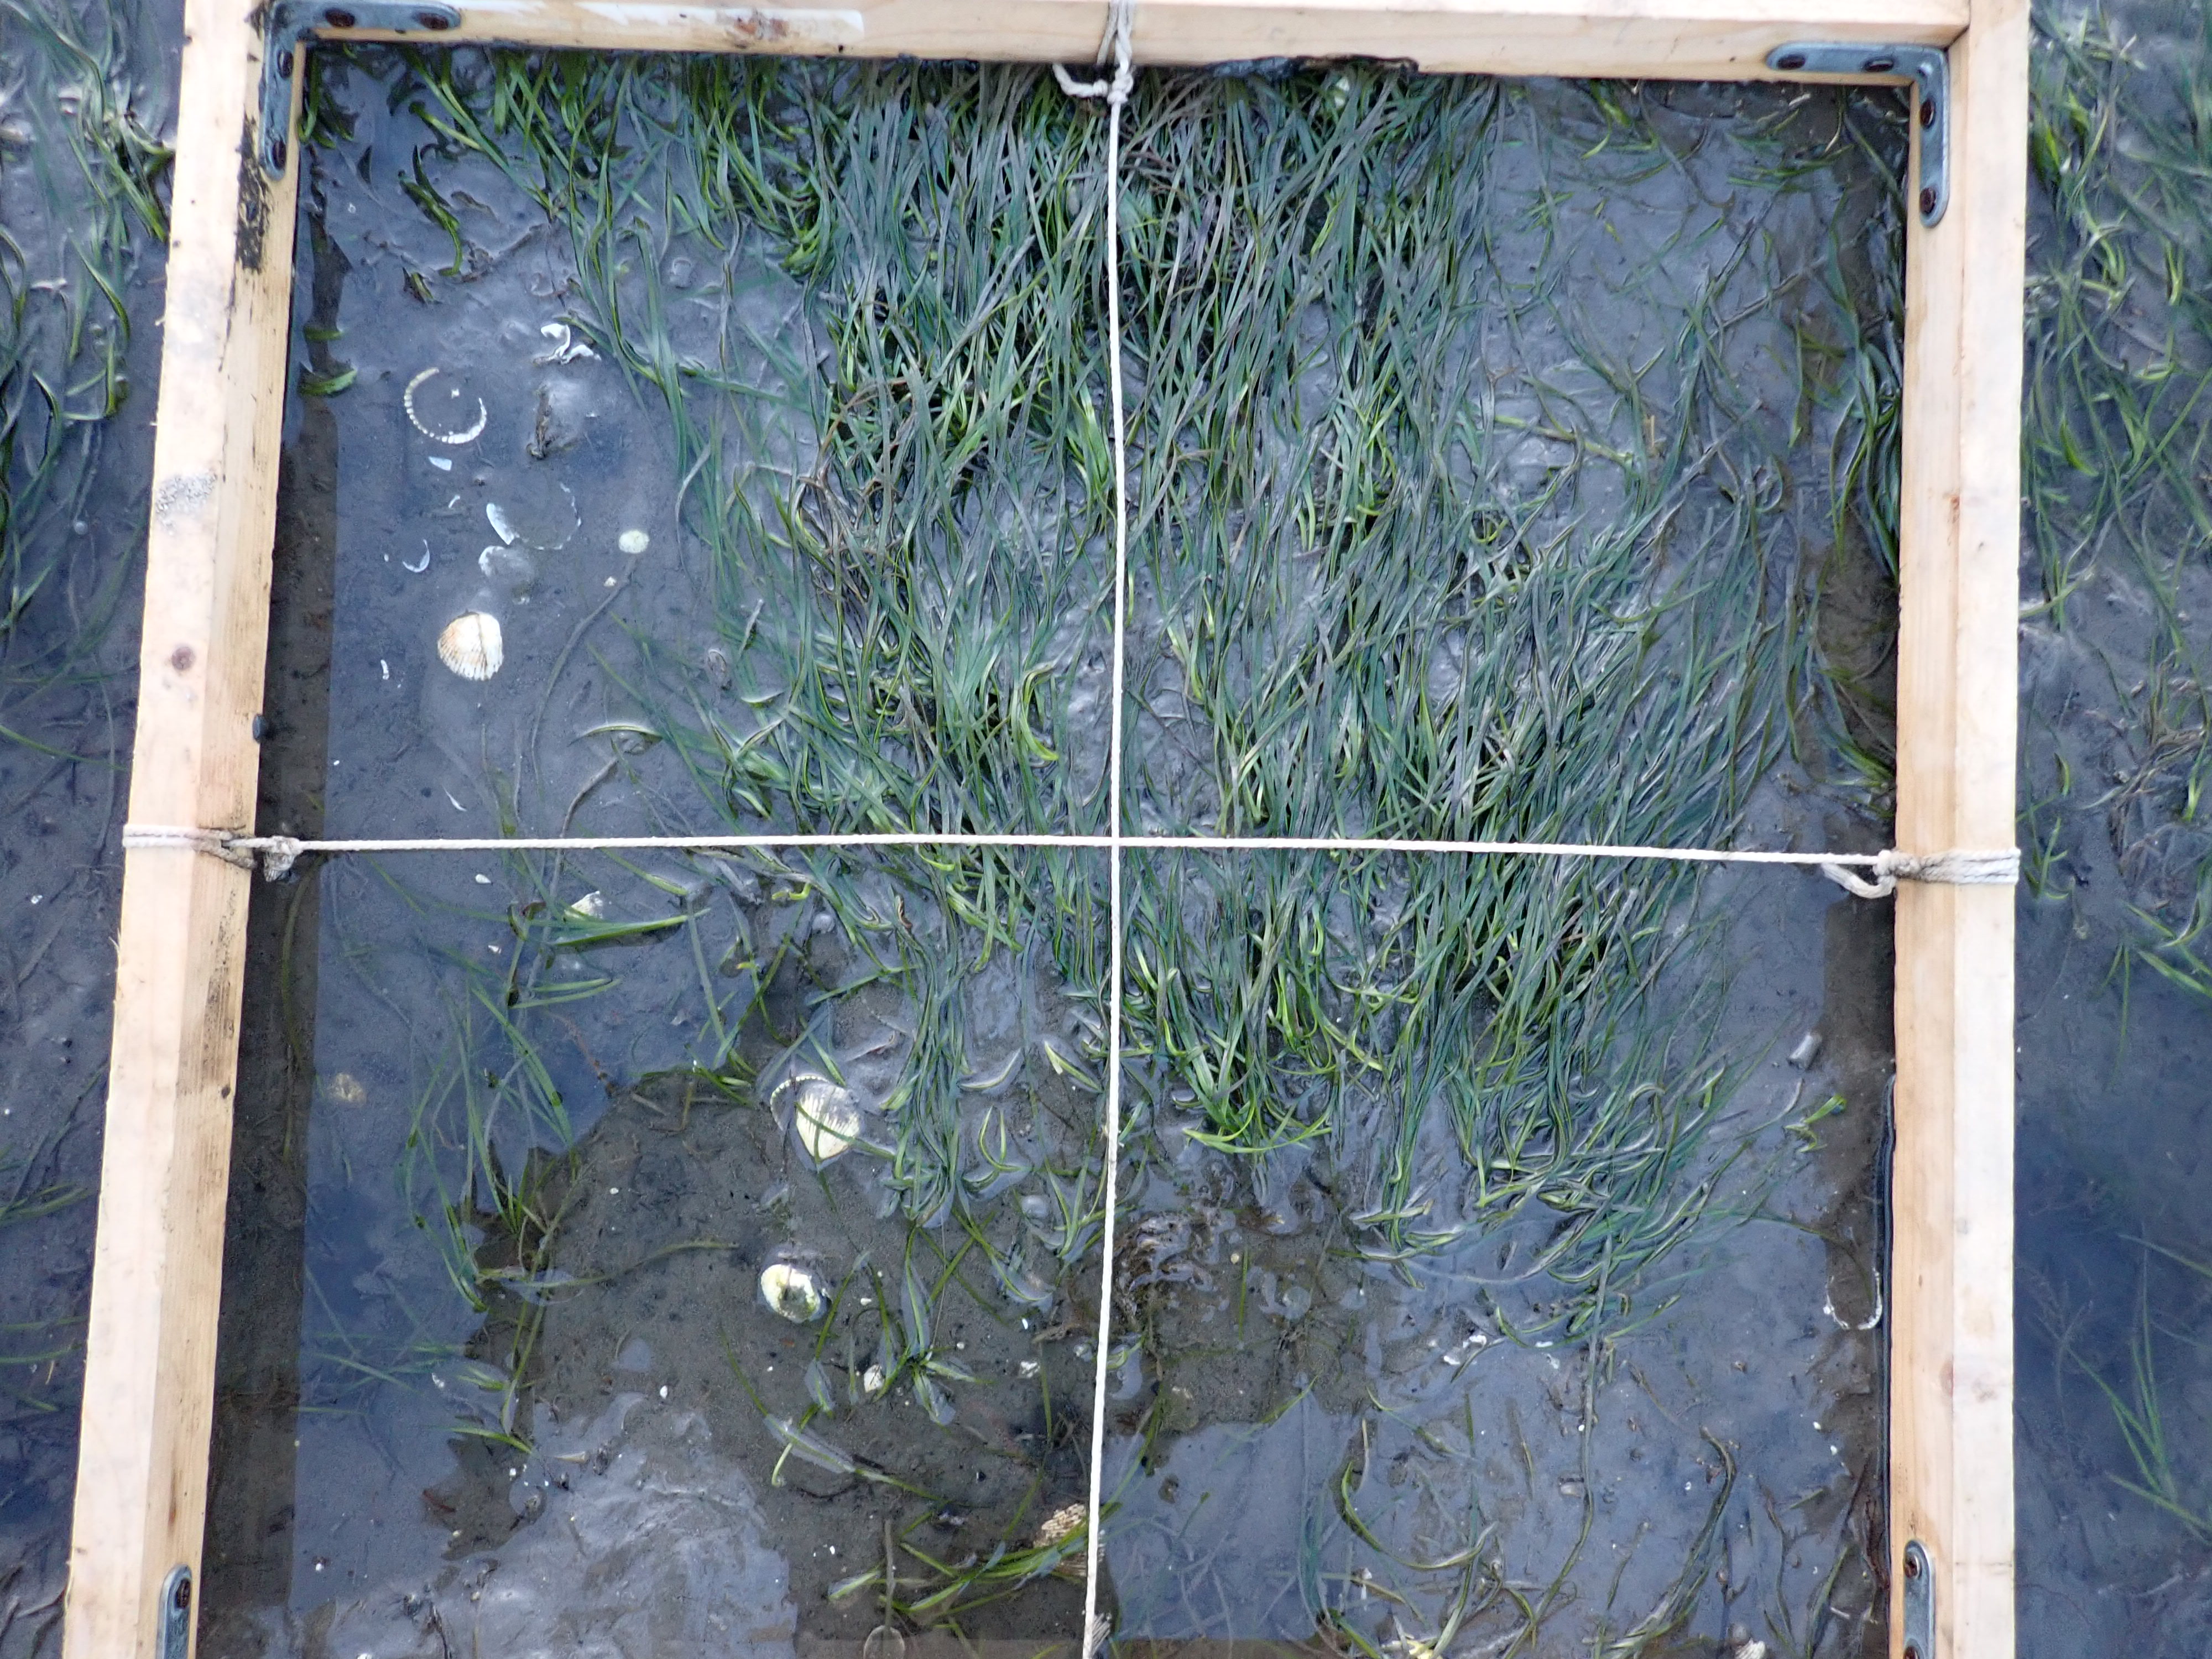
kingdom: Plantae
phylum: Tracheophyta
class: Liliopsida
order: Alismatales
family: Zosteraceae
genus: Zostera
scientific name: Zostera noltii
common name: Dwarf eelgrass
